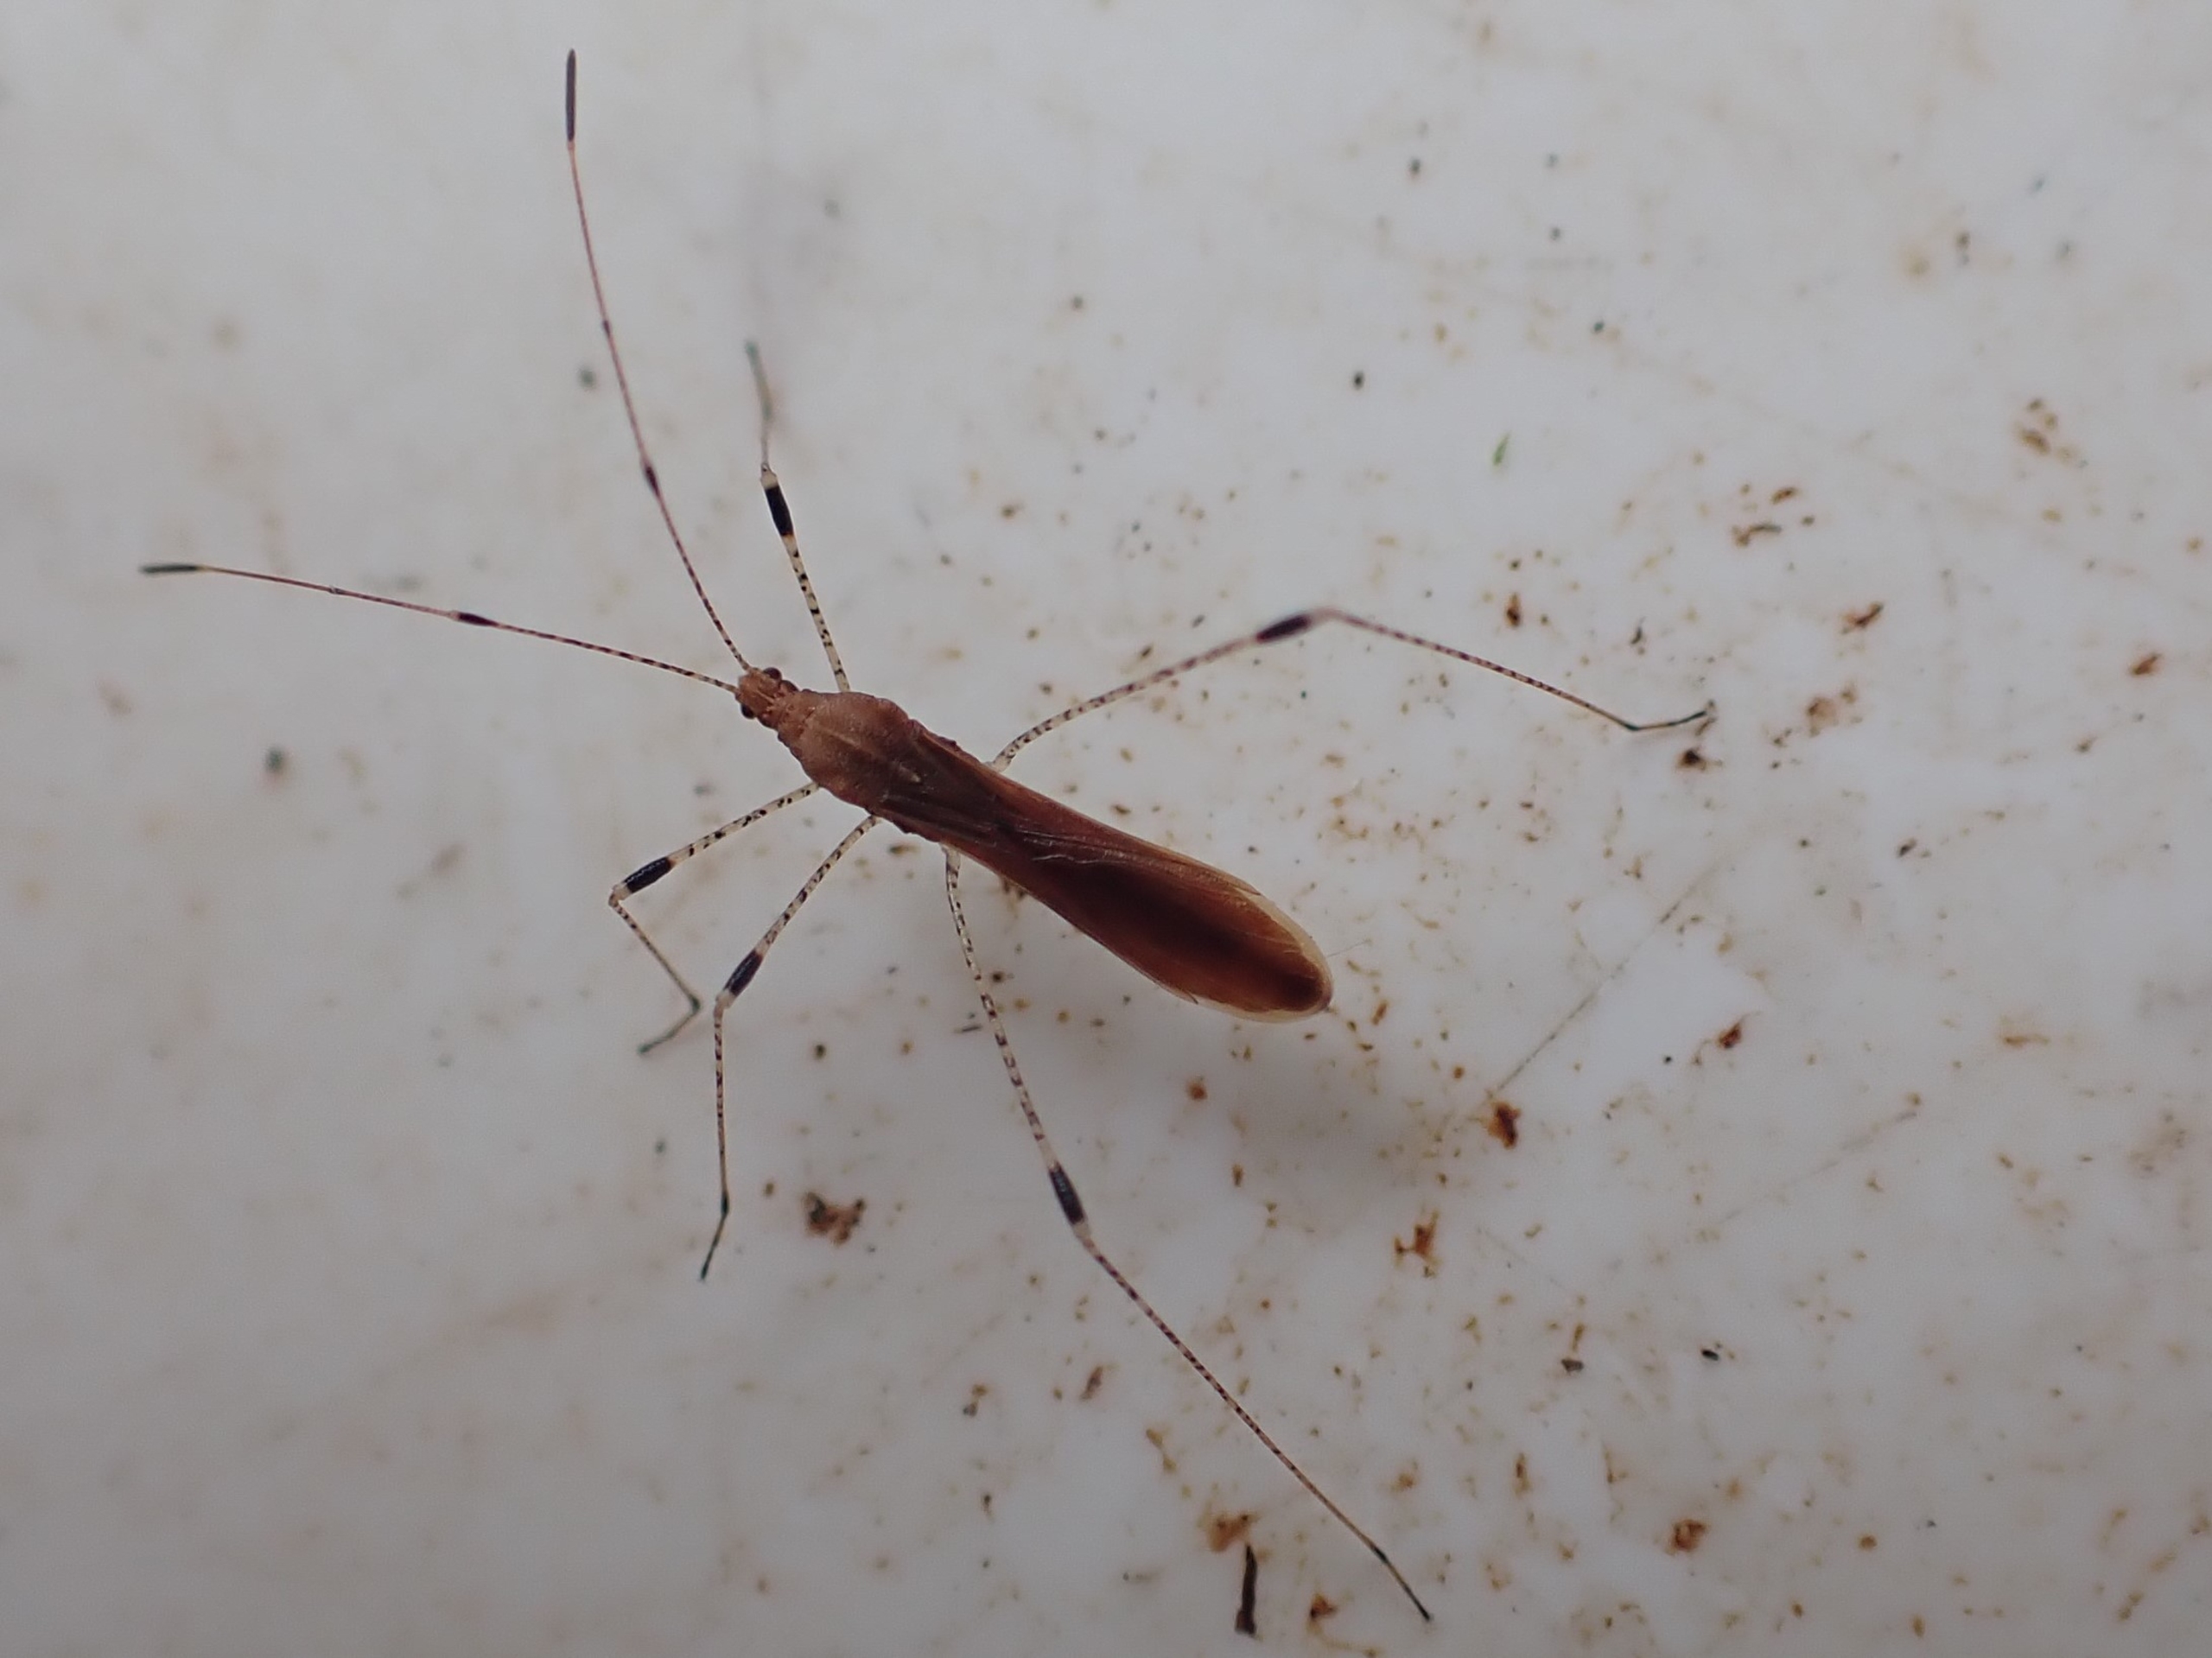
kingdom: Animalia
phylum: Arthropoda
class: Insecta
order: Hemiptera
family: Berytidae
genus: Metatropis
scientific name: Metatropis rufescens
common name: Steffensurttæge
